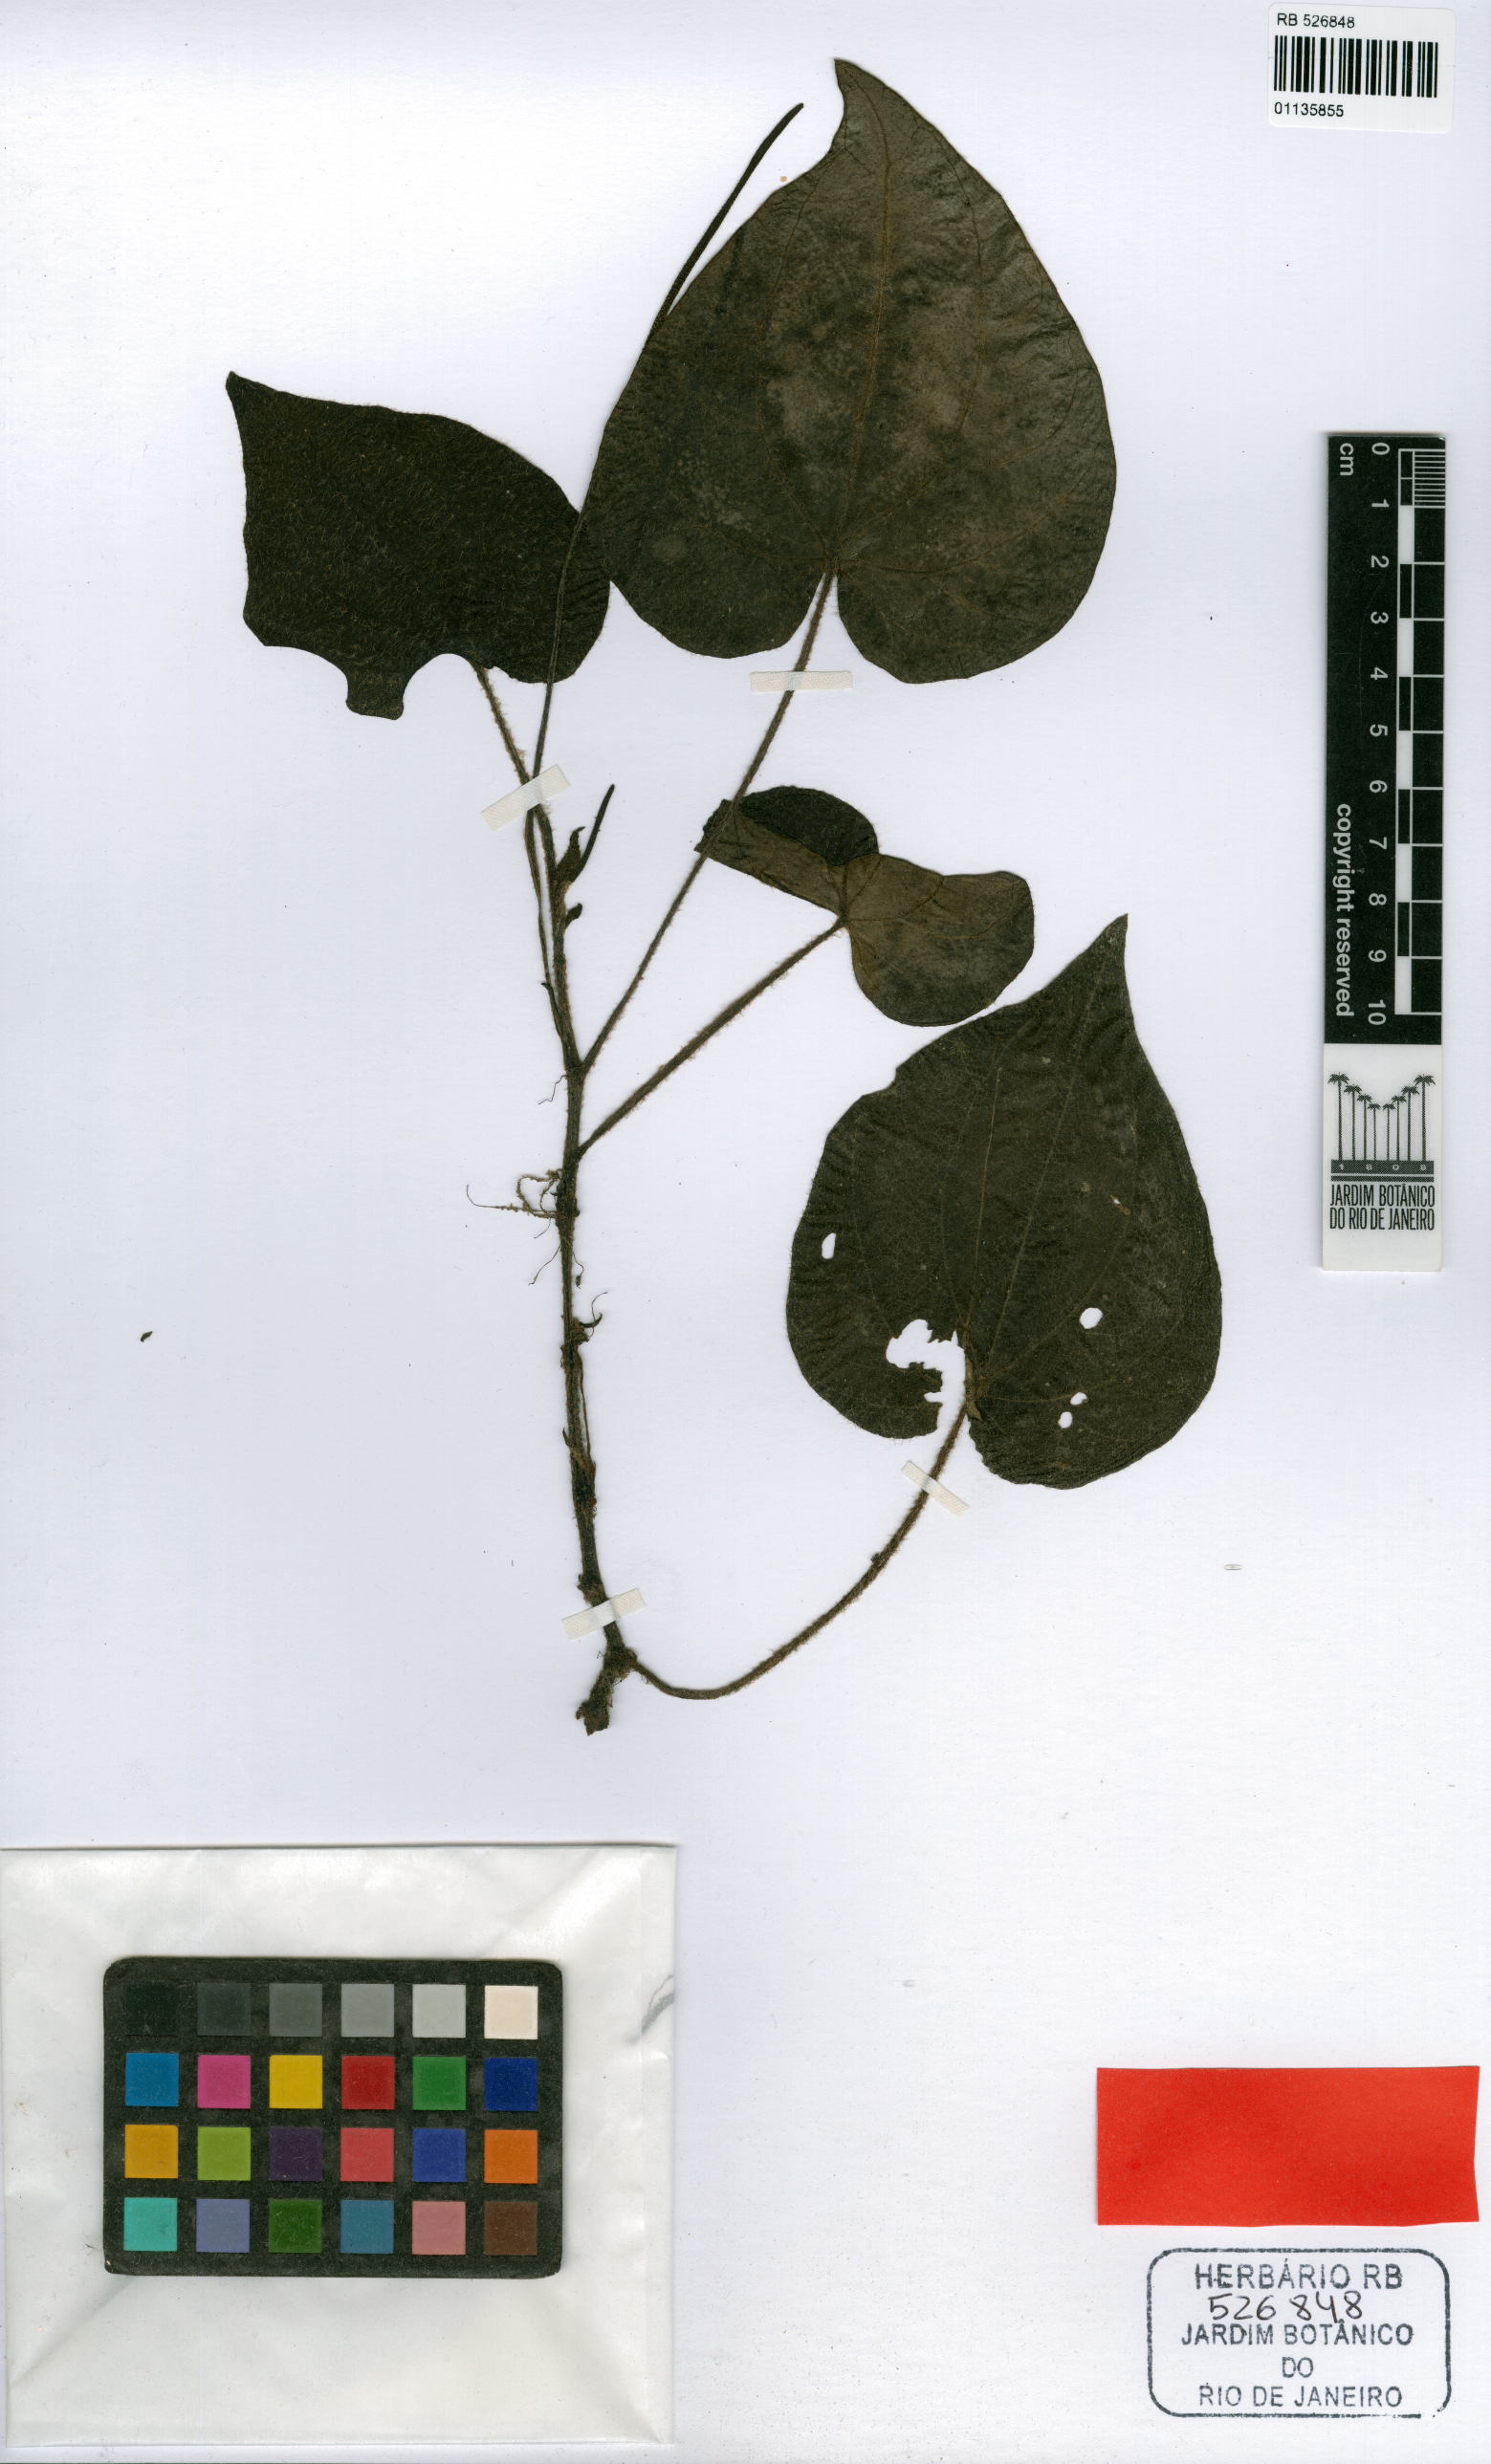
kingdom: Plantae
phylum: Tracheophyta
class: Magnoliopsida
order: Piperales
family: Piperaceae
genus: Peperomia
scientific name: Peperomia sulbahiensis
